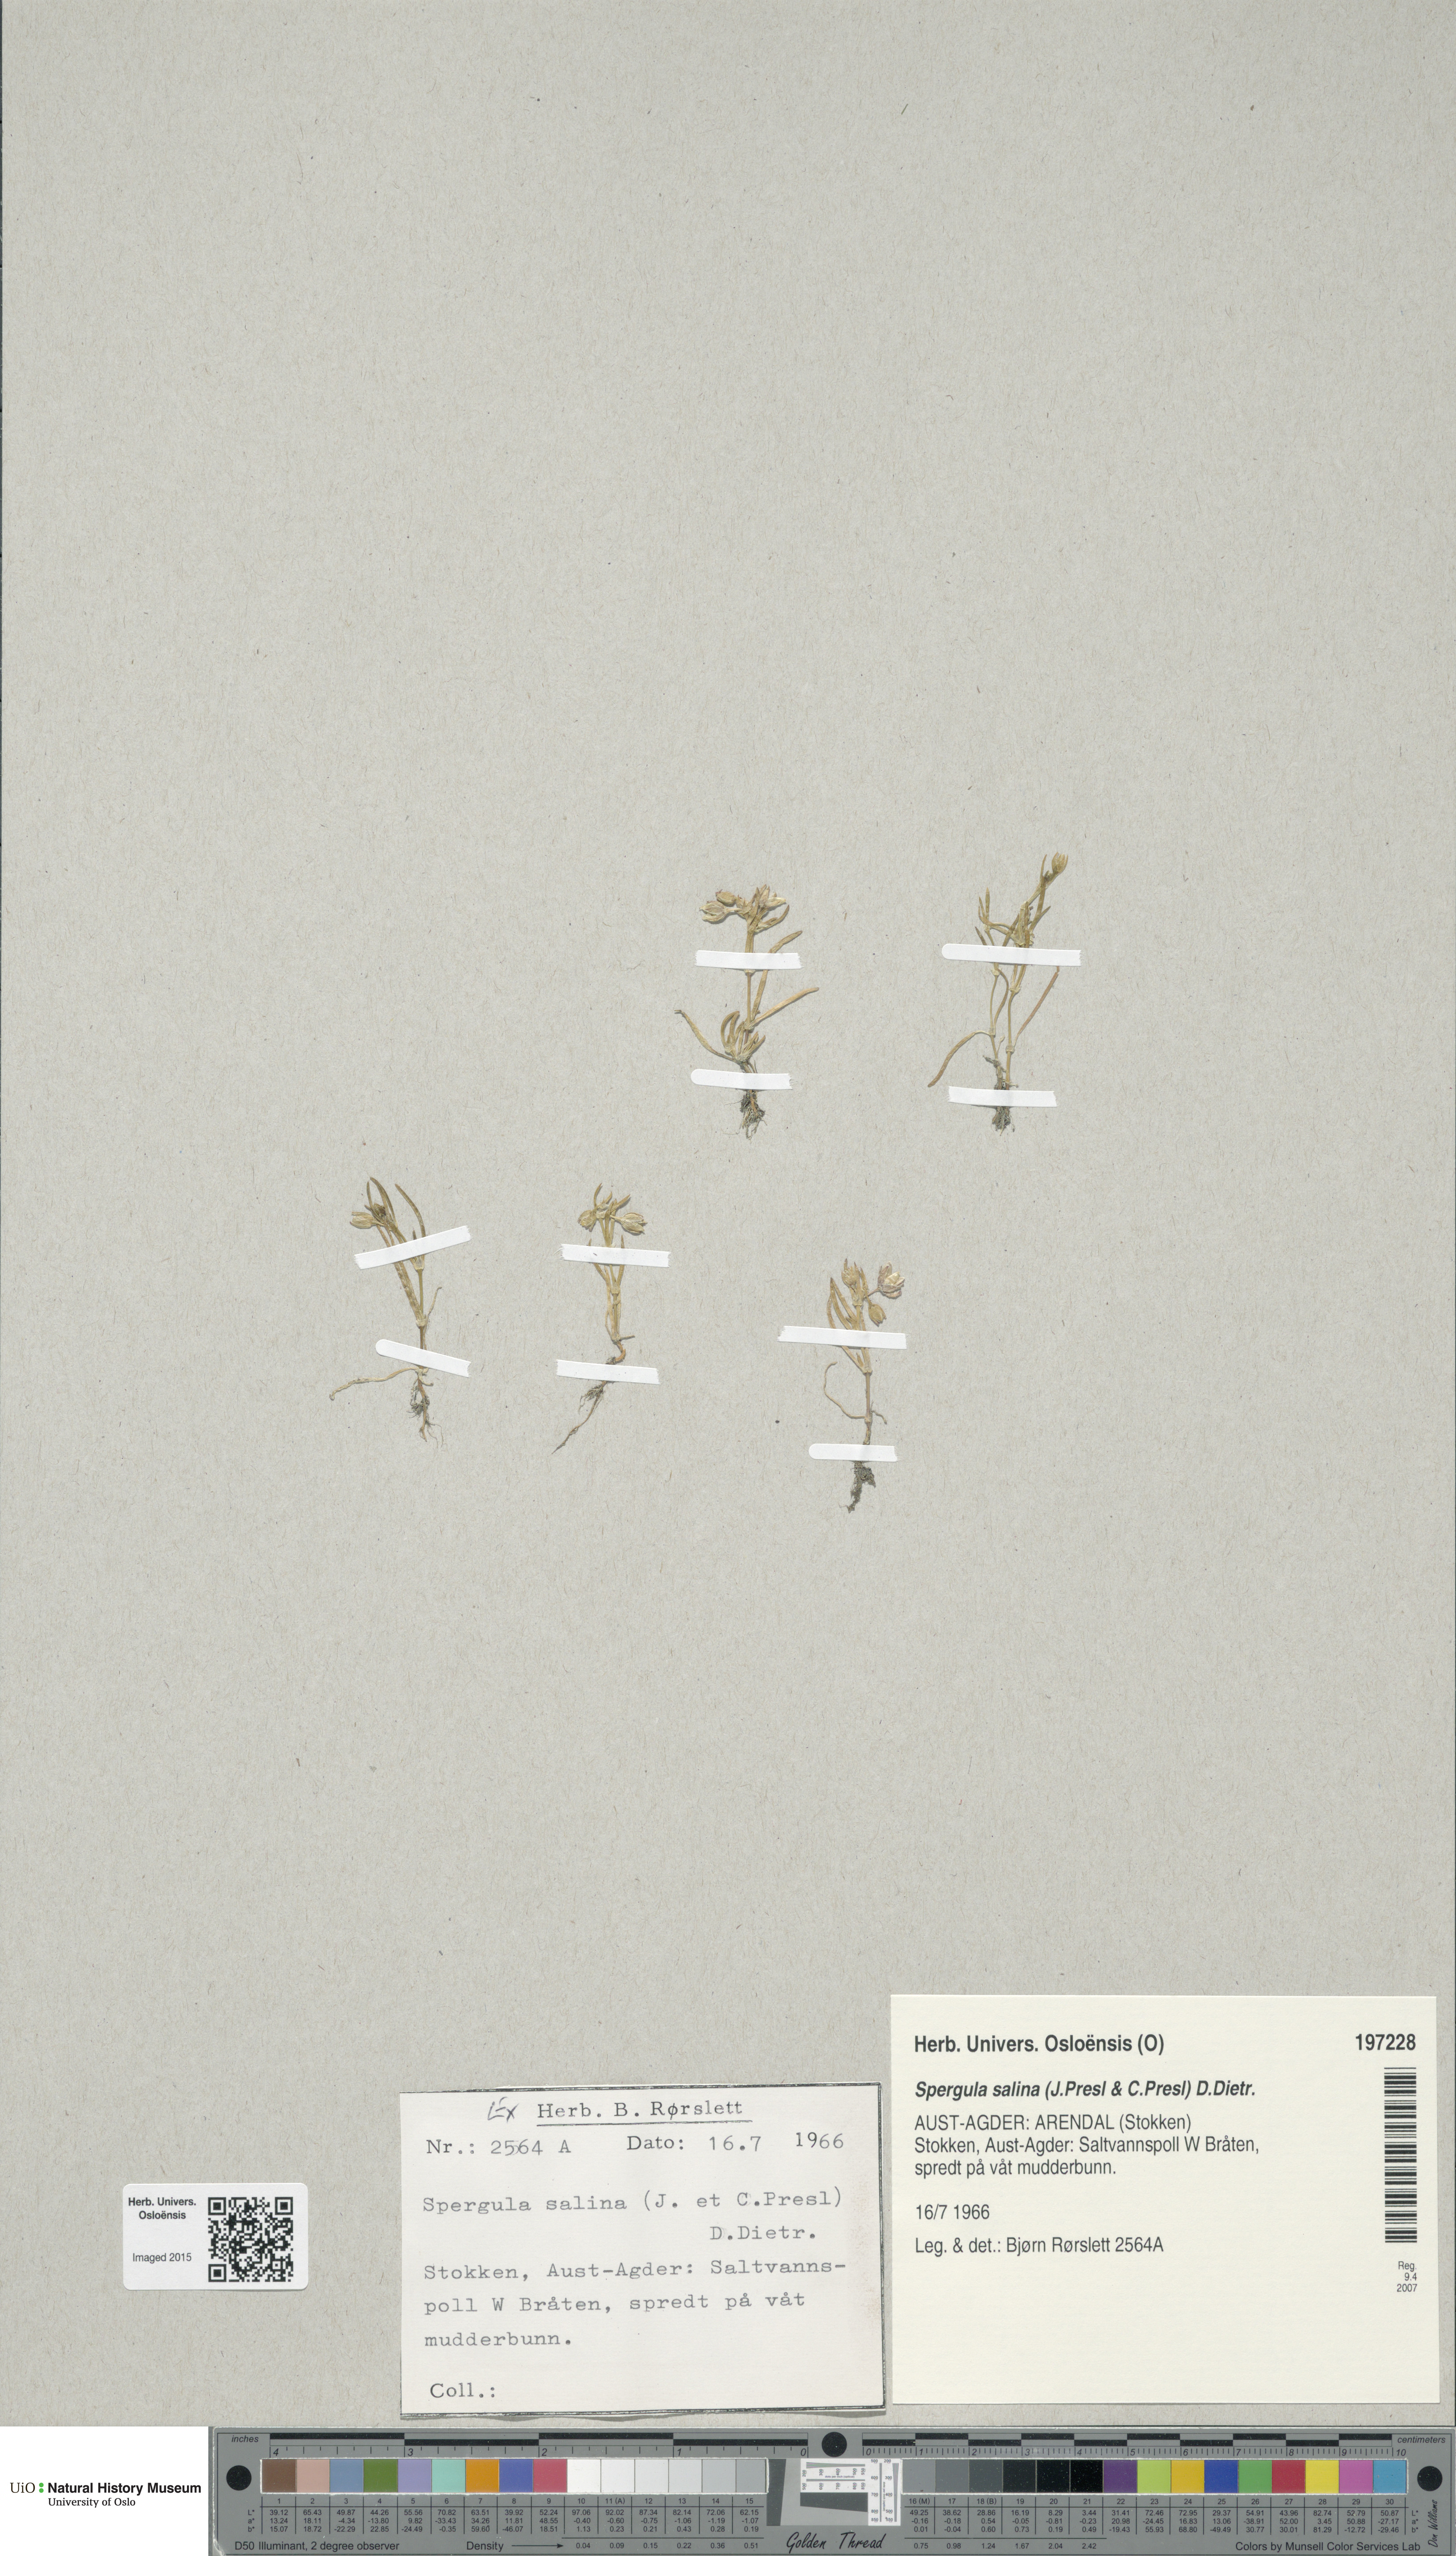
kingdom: Plantae
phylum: Tracheophyta
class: Magnoliopsida
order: Caryophyllales
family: Caryophyllaceae
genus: Spergularia
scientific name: Spergularia marina
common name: Lesser sea-spurrey
